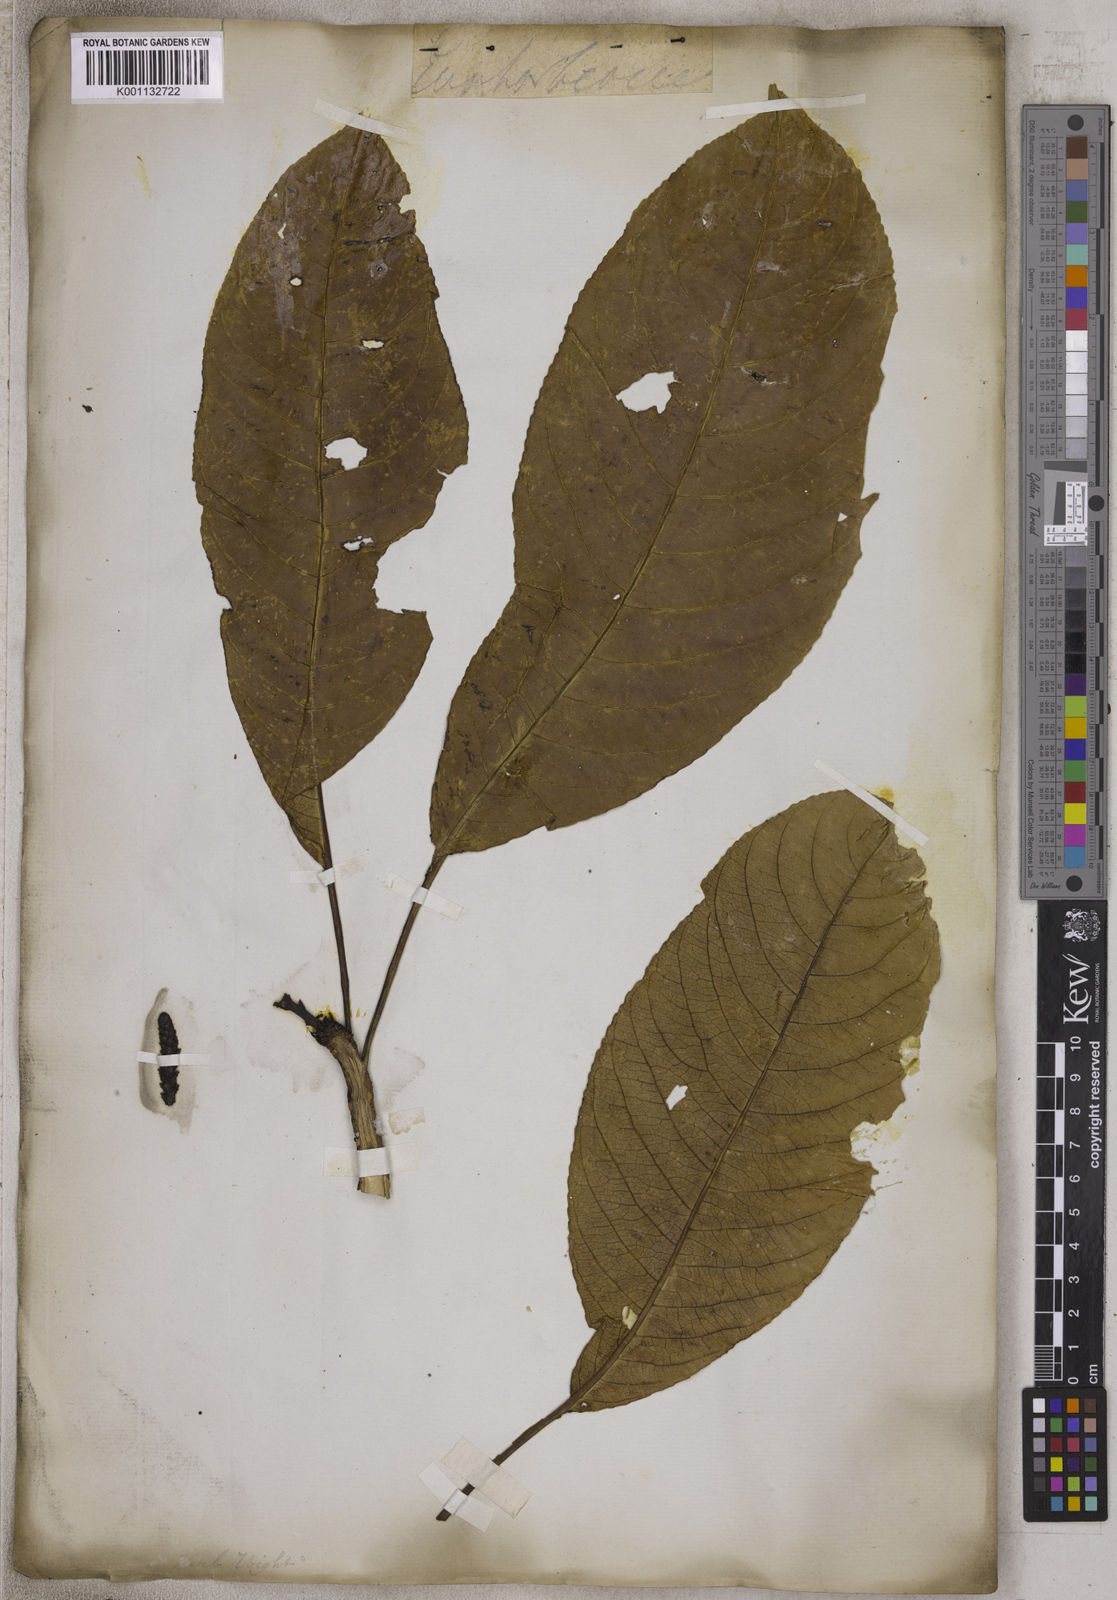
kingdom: Plantae
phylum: Tracheophyta
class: Magnoliopsida
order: Malpighiales
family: Euphorbiaceae
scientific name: Euphorbiaceae
